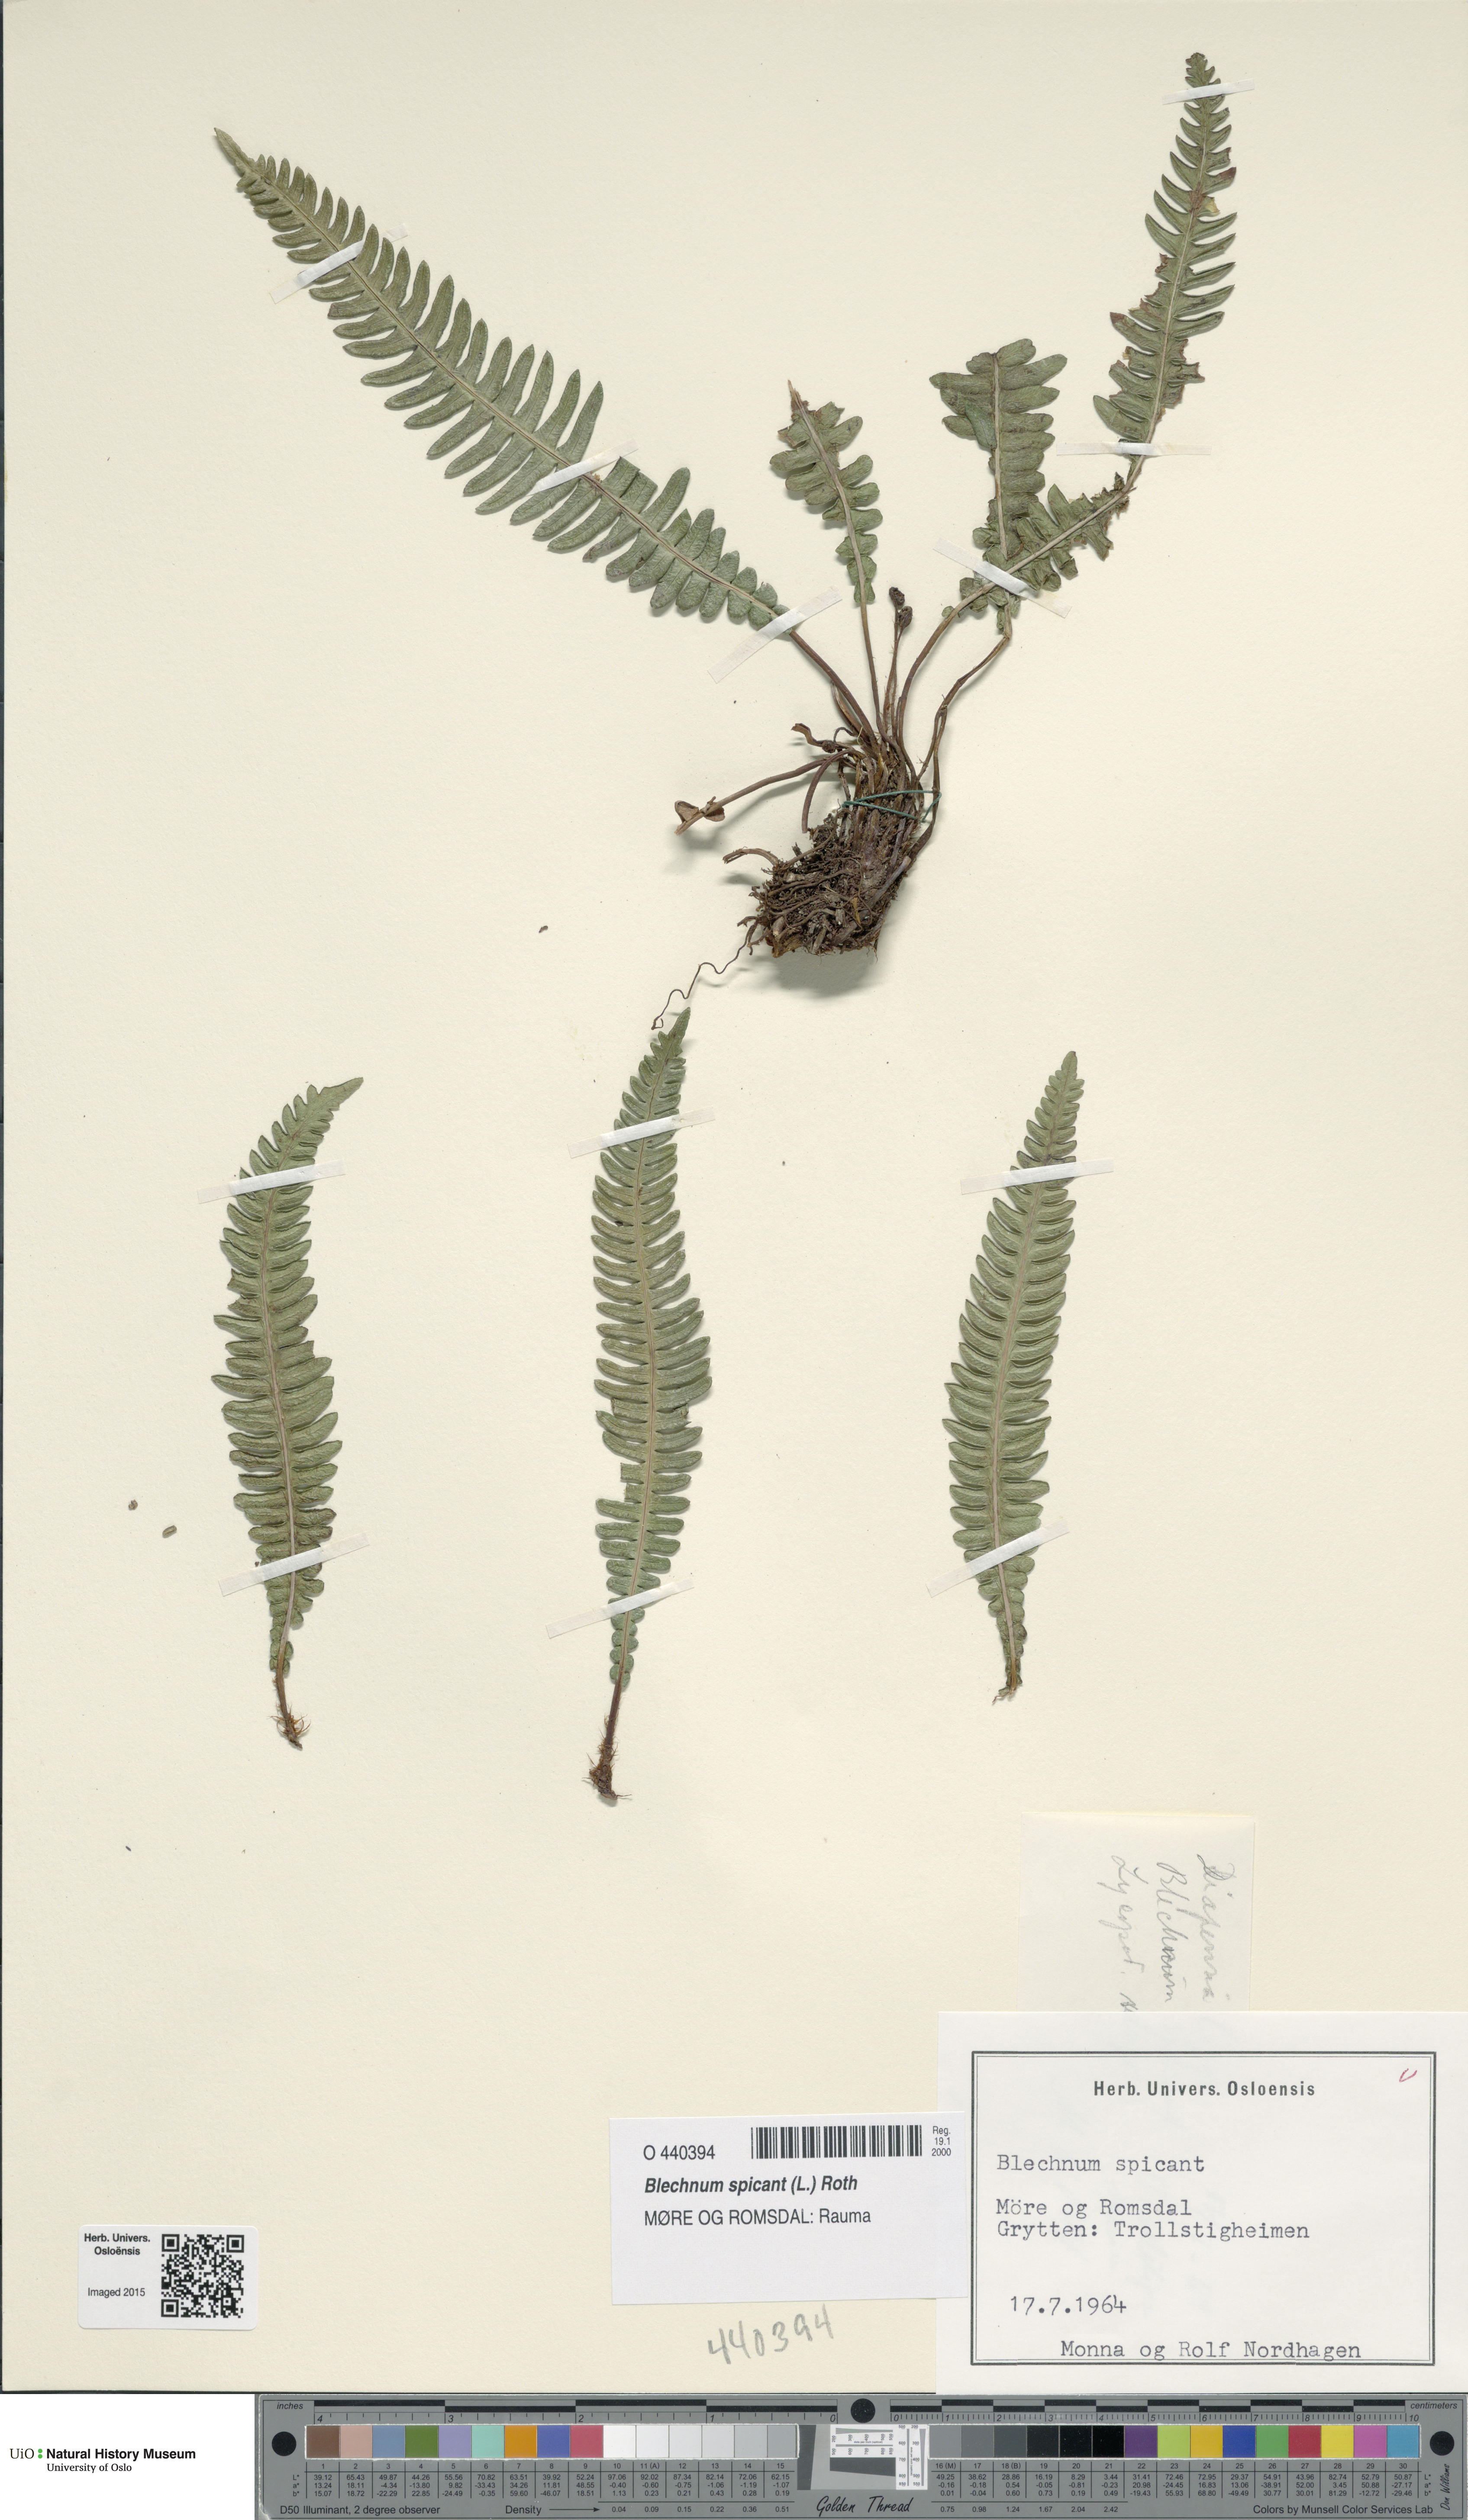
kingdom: Plantae
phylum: Tracheophyta
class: Polypodiopsida
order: Polypodiales
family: Blechnaceae
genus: Struthiopteris
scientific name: Struthiopteris spicant
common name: Deer fern
